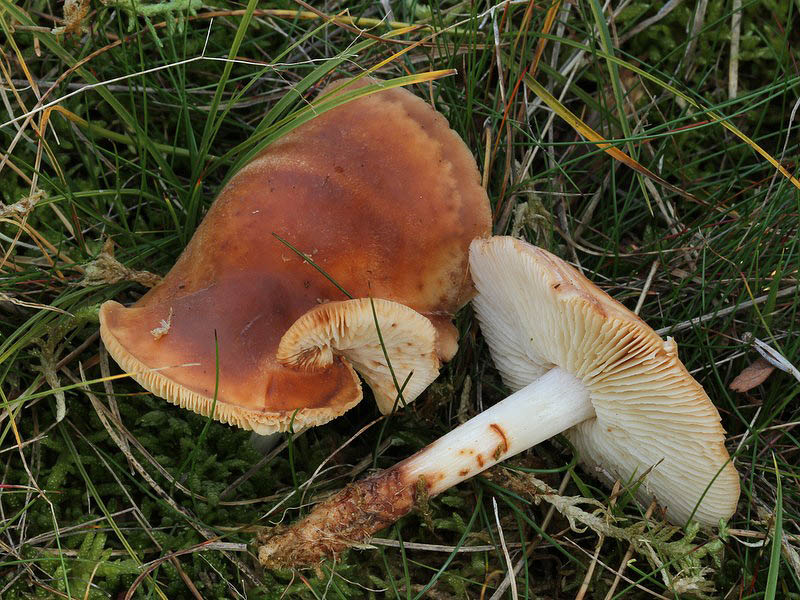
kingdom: Fungi
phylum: Basidiomycota
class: Agaricomycetes
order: Agaricales
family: Omphalotaceae
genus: Rhodocollybia
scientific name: Rhodocollybia maculata
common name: plettet fladhat
